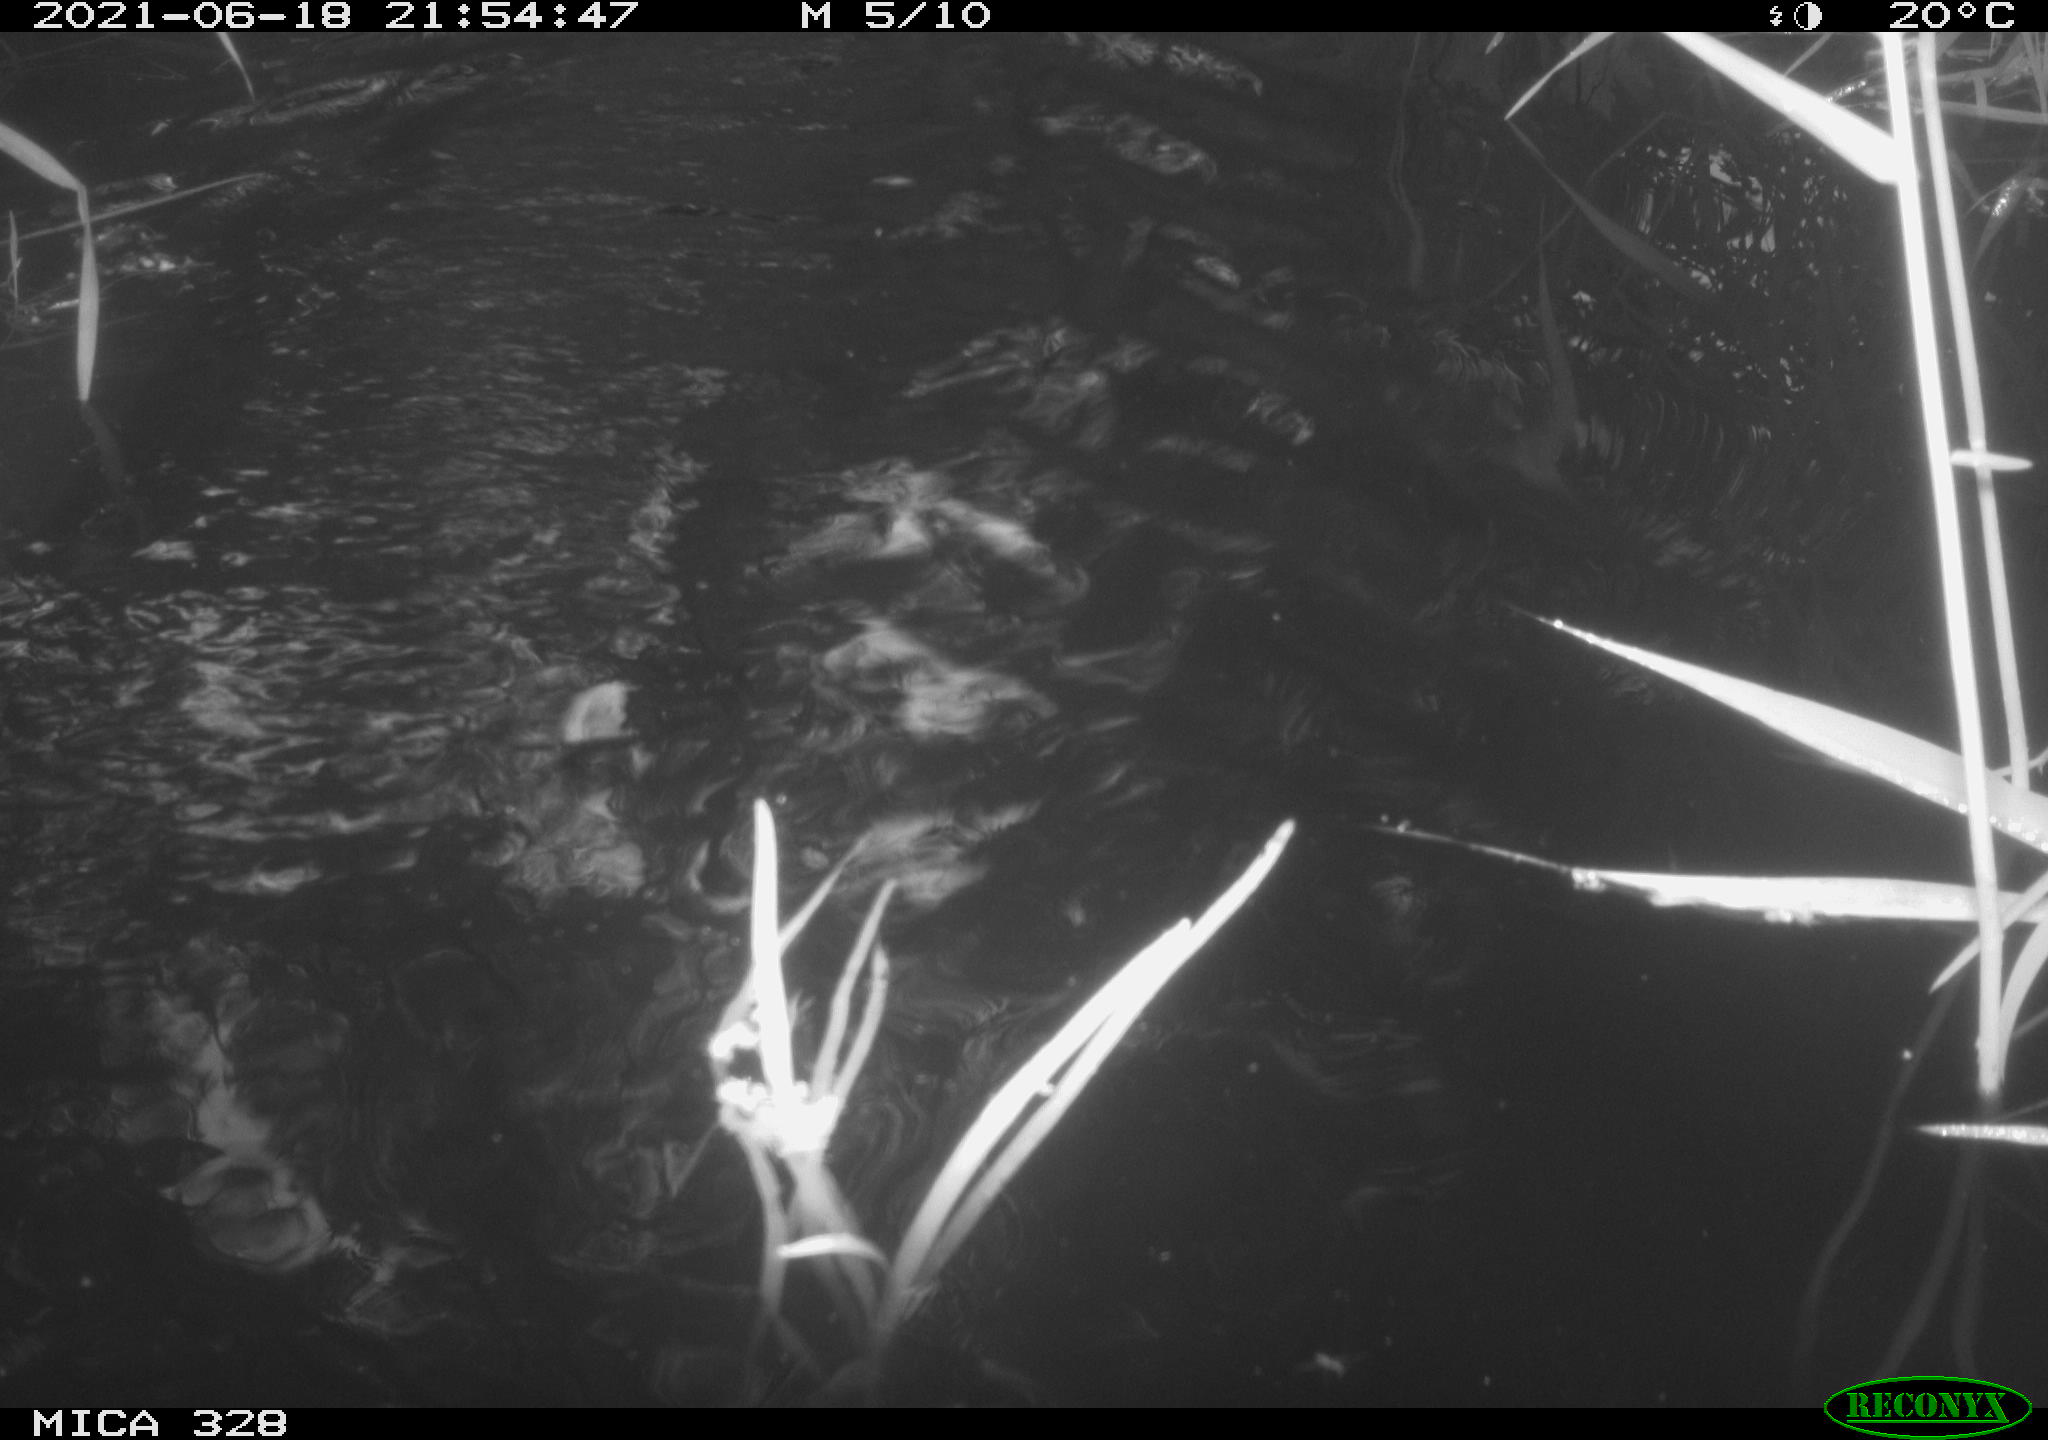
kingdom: Animalia
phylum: Chordata
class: Mammalia
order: Rodentia
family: Cricetidae
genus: Ondatra
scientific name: Ondatra zibethicus
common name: Muskrat
